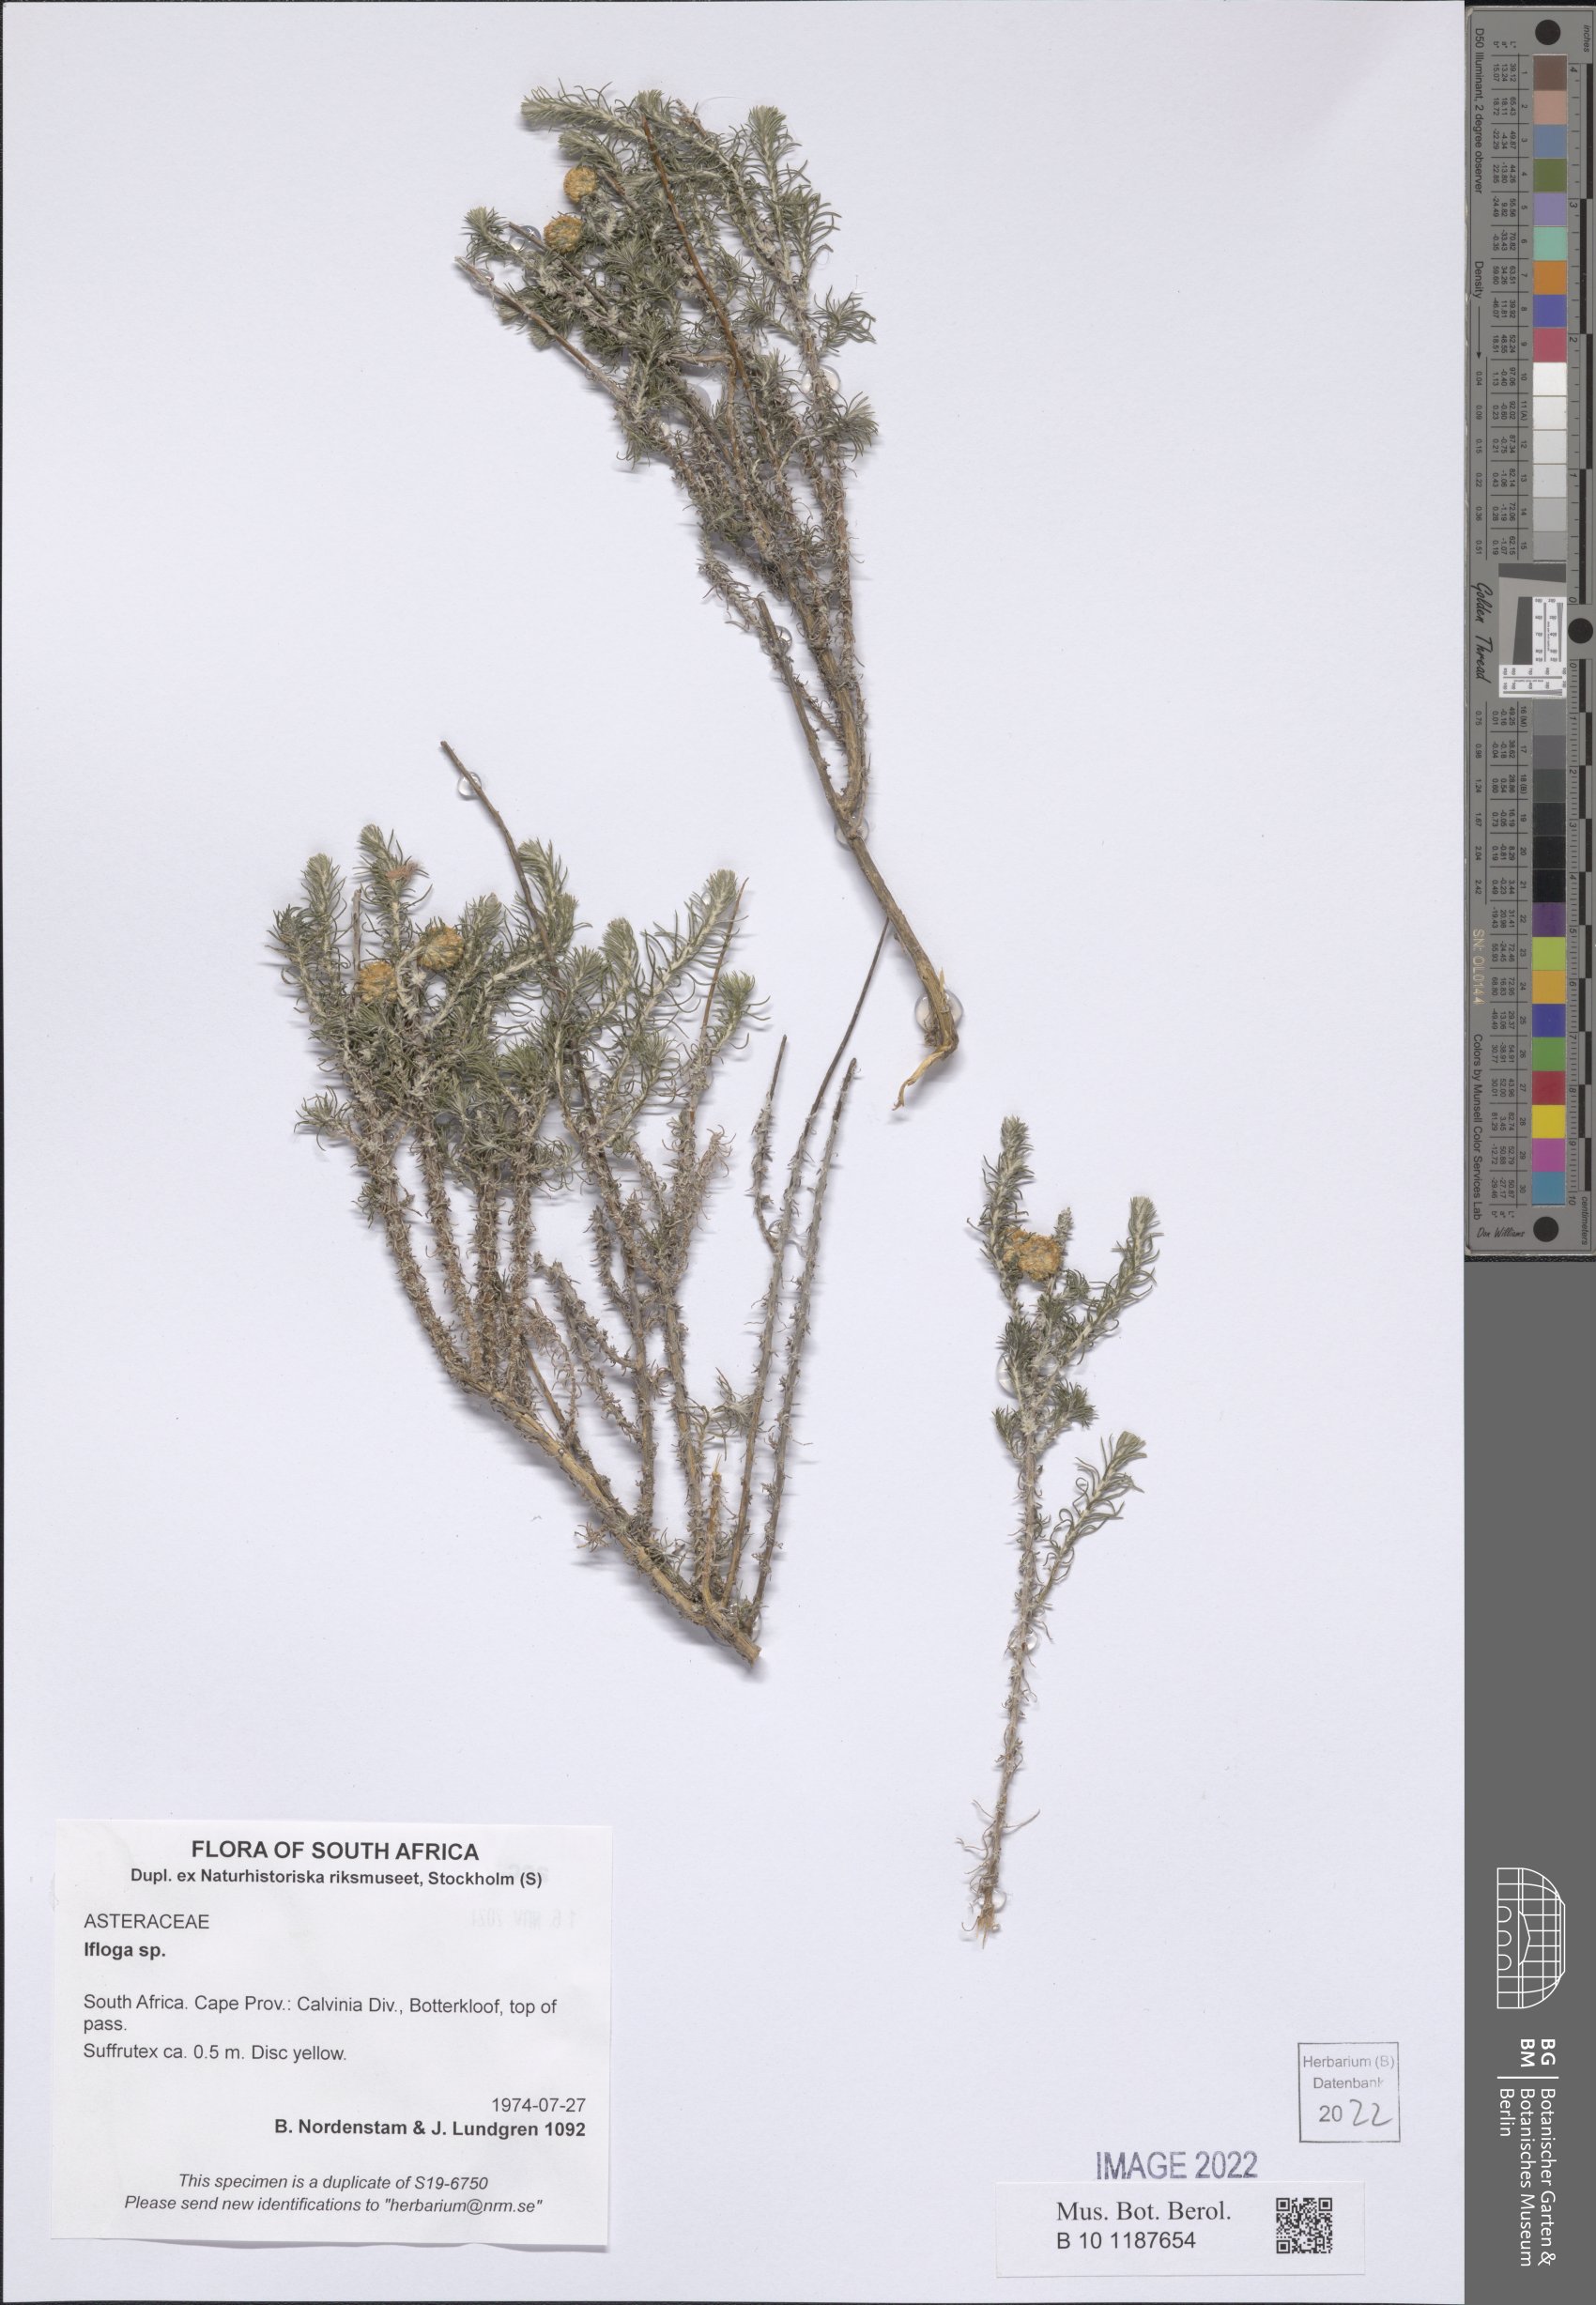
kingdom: Plantae
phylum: Tracheophyta
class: Magnoliopsida
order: Asterales
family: Asteraceae
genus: Ifloga
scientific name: Ifloga
